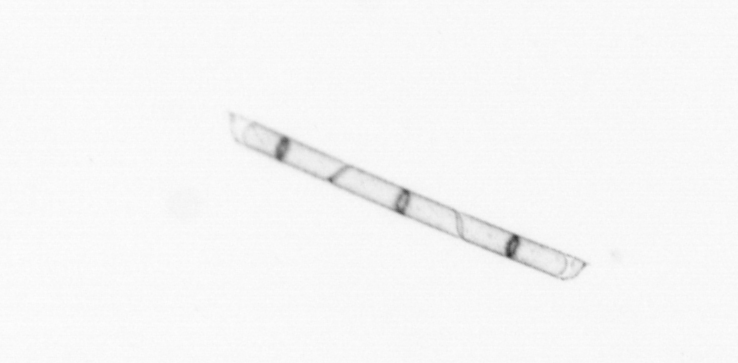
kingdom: Chromista
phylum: Ochrophyta
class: Bacillariophyceae
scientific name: Bacillariophyceae
